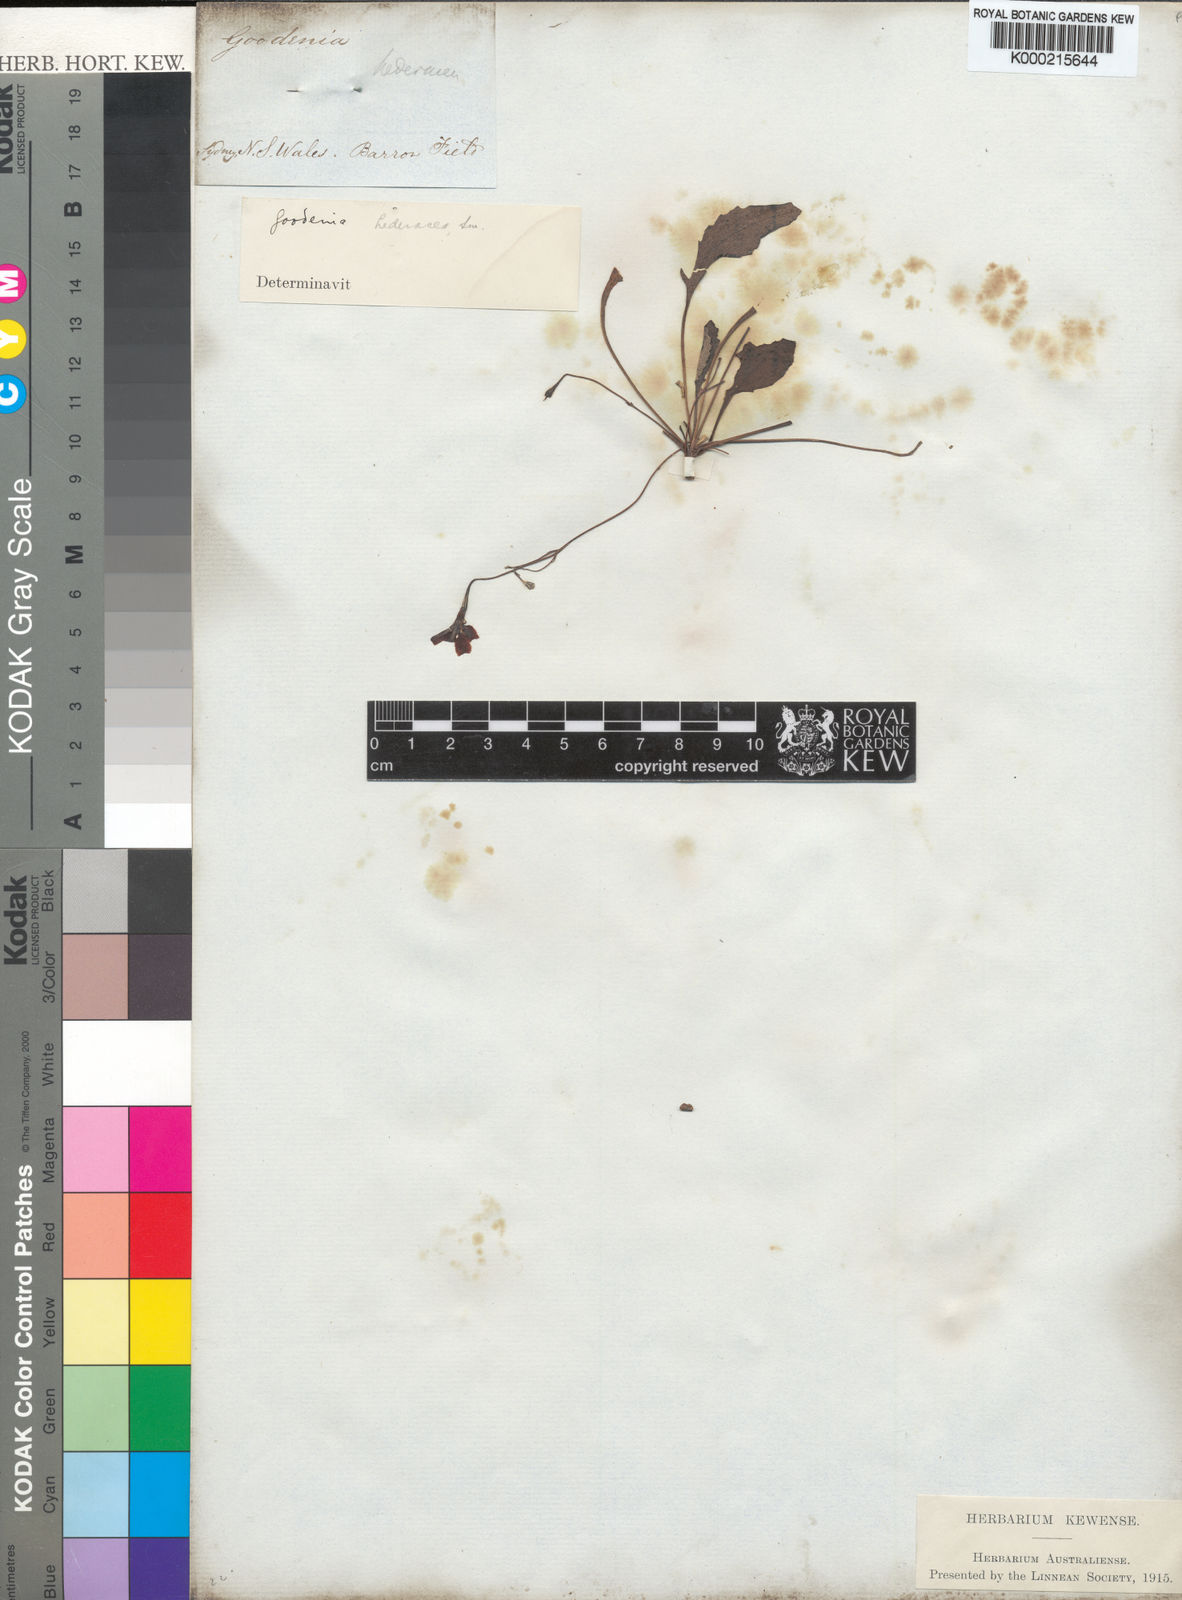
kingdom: Plantae
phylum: Tracheophyta
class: Magnoliopsida
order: Asterales
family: Goodeniaceae
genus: Goodenia
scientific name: Goodenia hederacea
